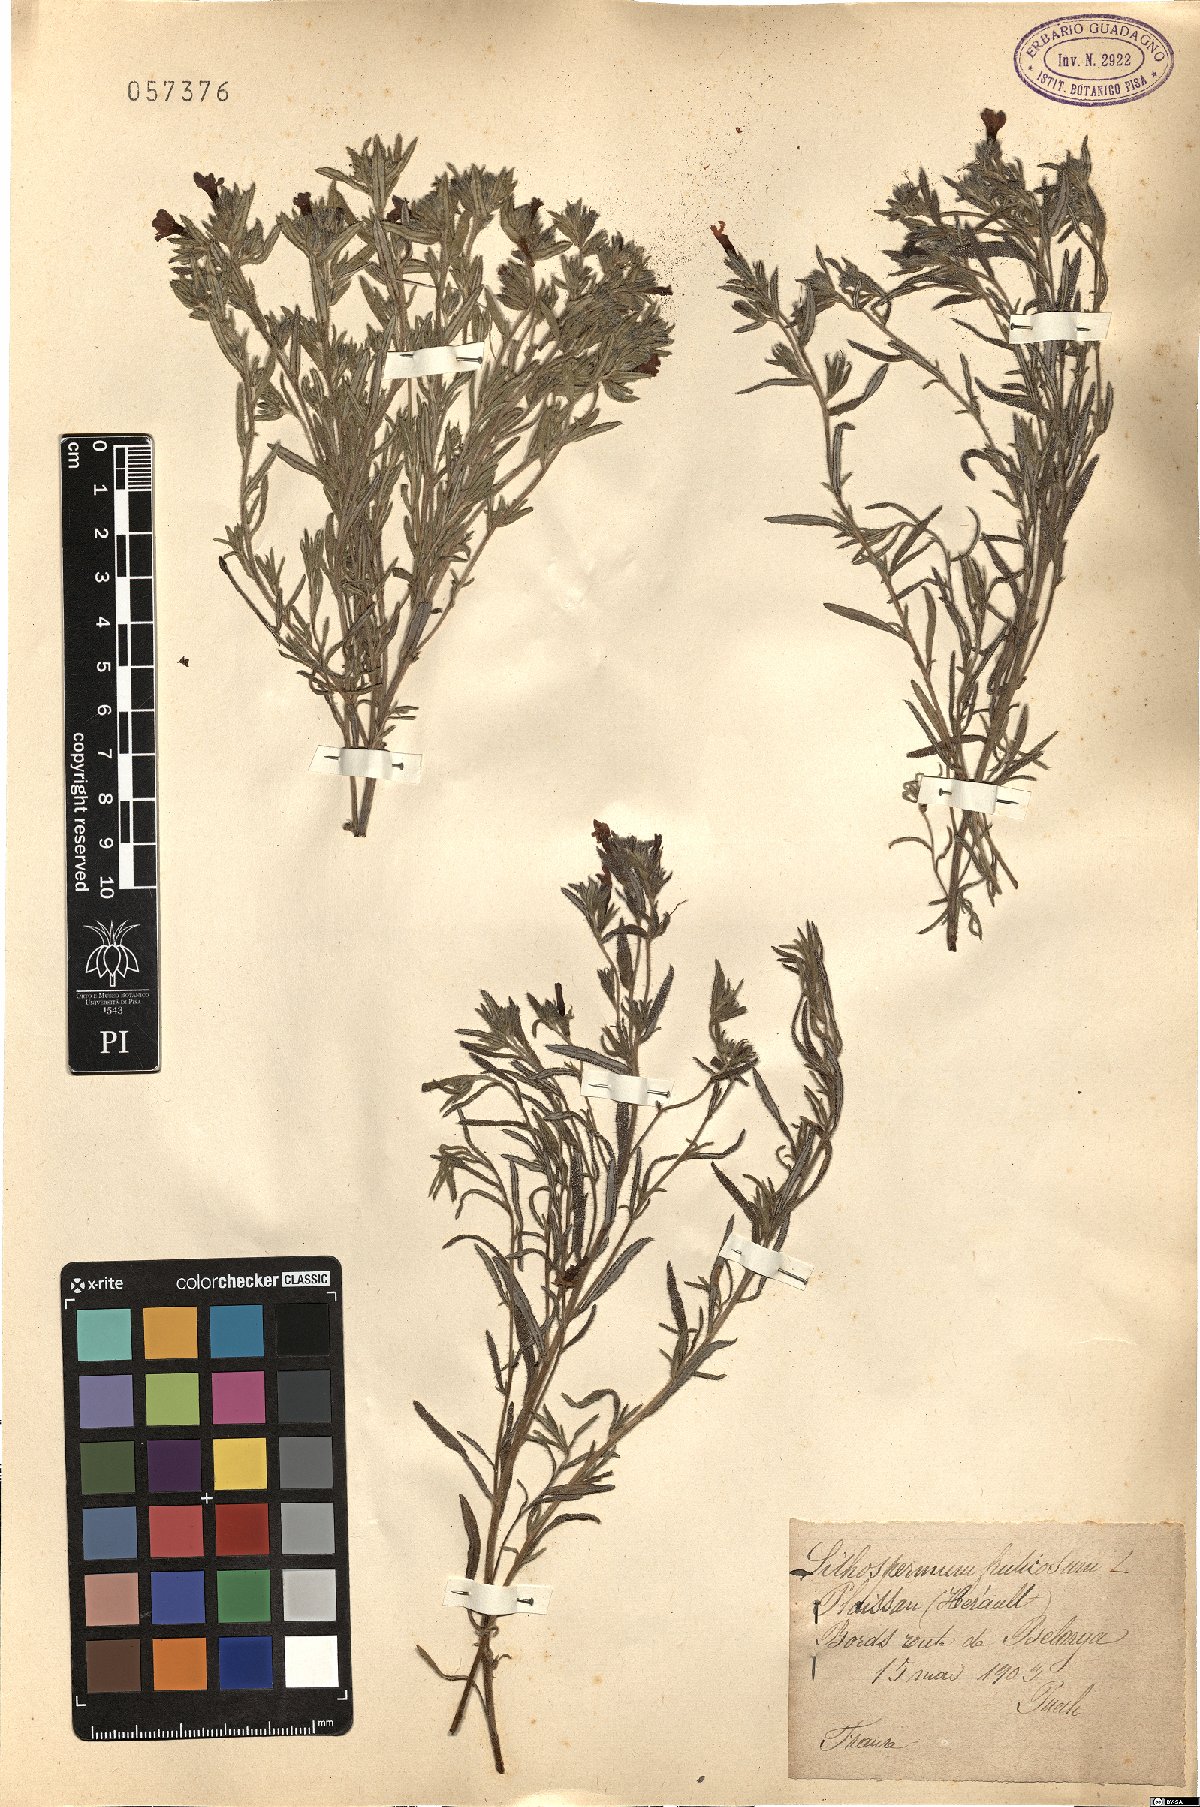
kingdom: Plantae
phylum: Tracheophyta
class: Magnoliopsida
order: Boraginales
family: Boraginaceae
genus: Lithodora
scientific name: Lithodora fruticosa
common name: Shrubby gromwell
